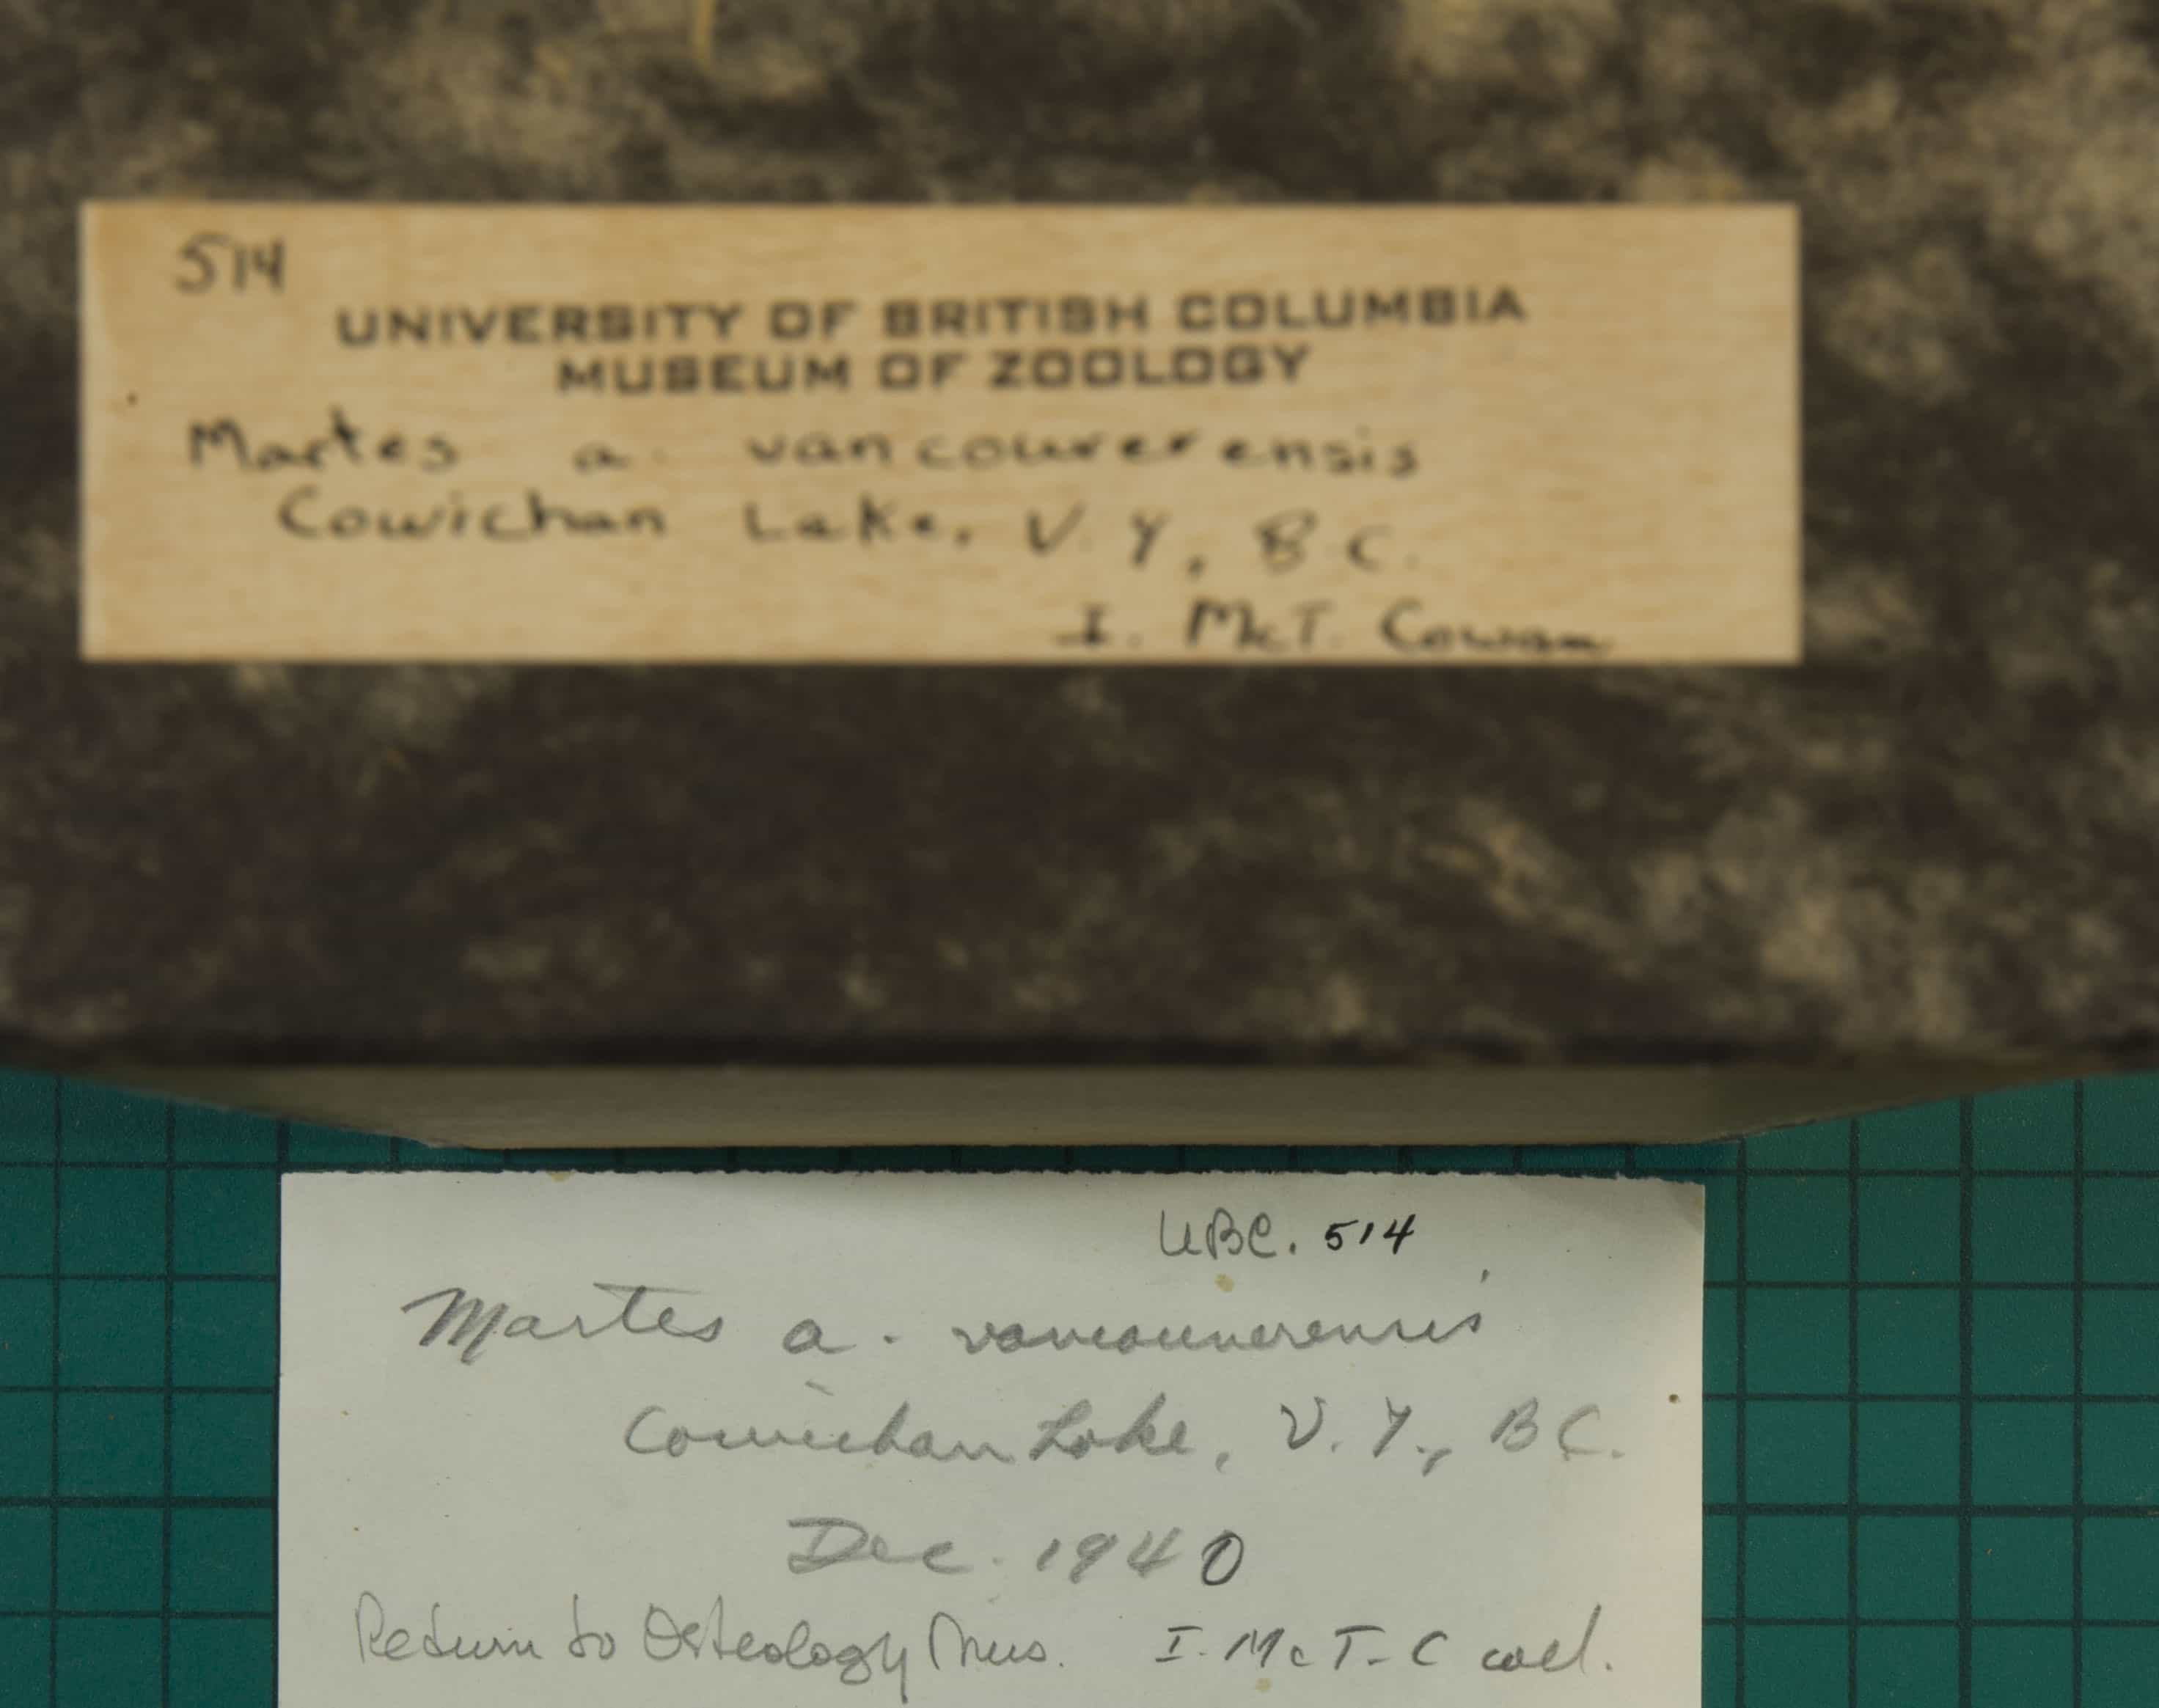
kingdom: Animalia
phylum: Chordata
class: Mammalia
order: Carnivora
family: Mustelidae
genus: Martes
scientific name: Martes americana
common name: American Marten
